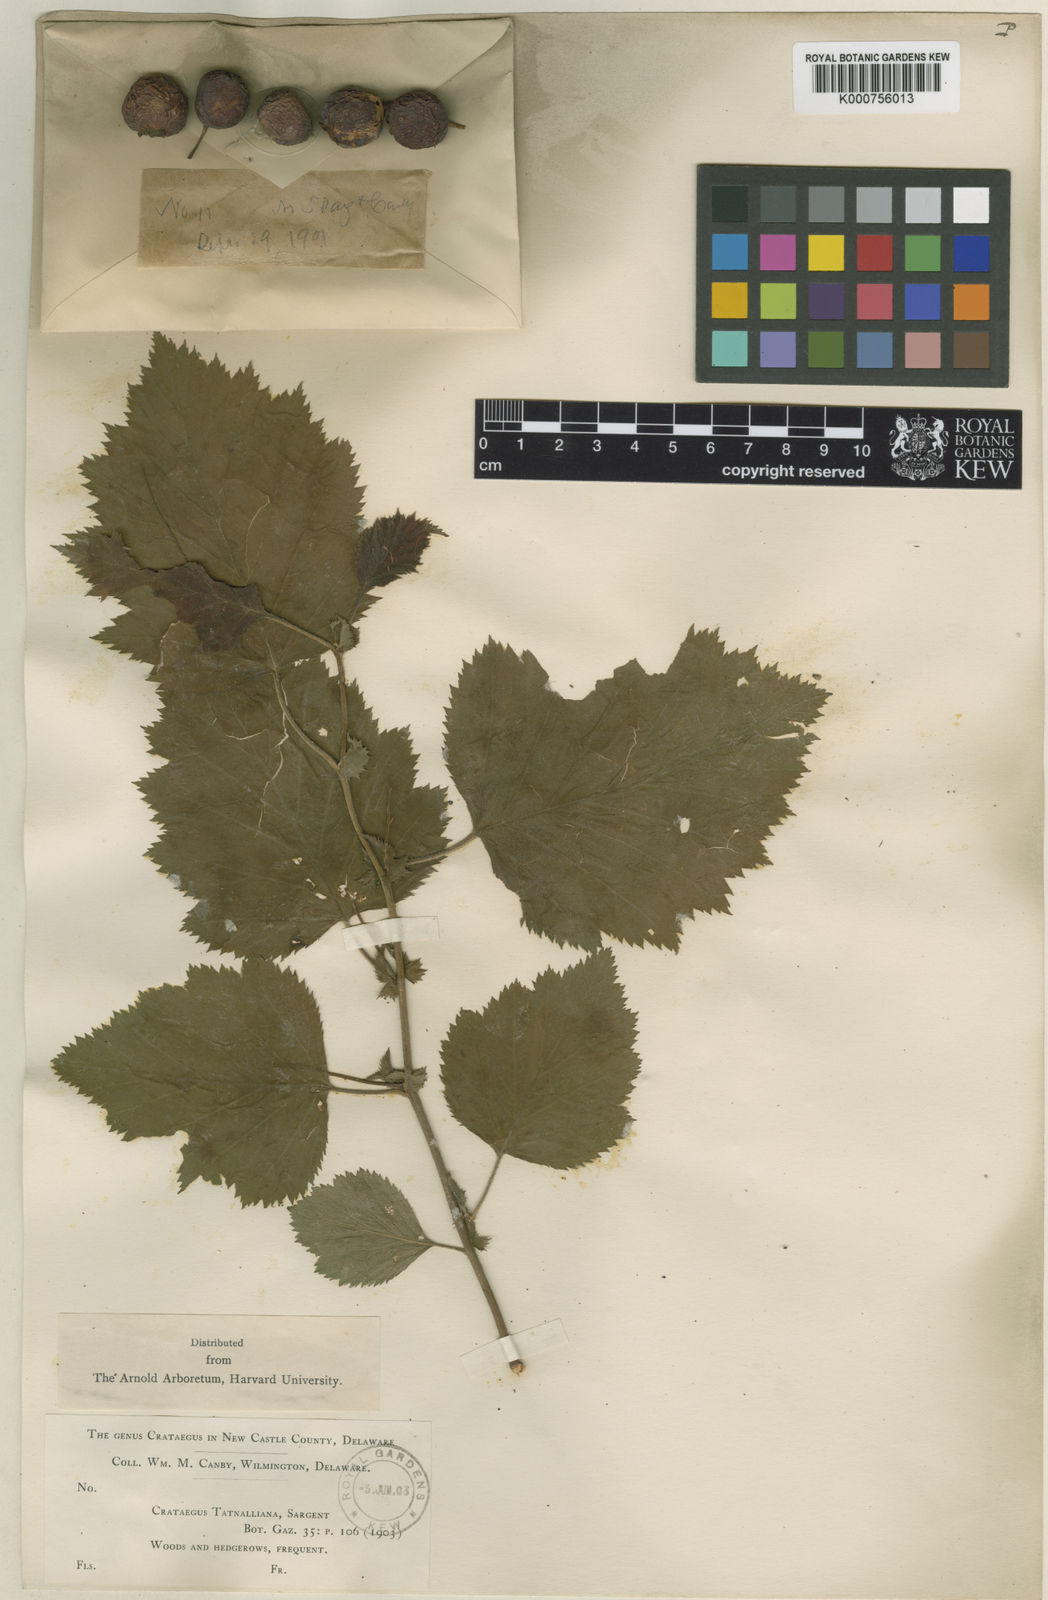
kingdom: Plantae
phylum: Tracheophyta
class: Magnoliopsida
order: Rosales
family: Rosaceae
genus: Crataegus
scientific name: Crataegus pennsylvanica
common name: Pennsylvania hawthorn
